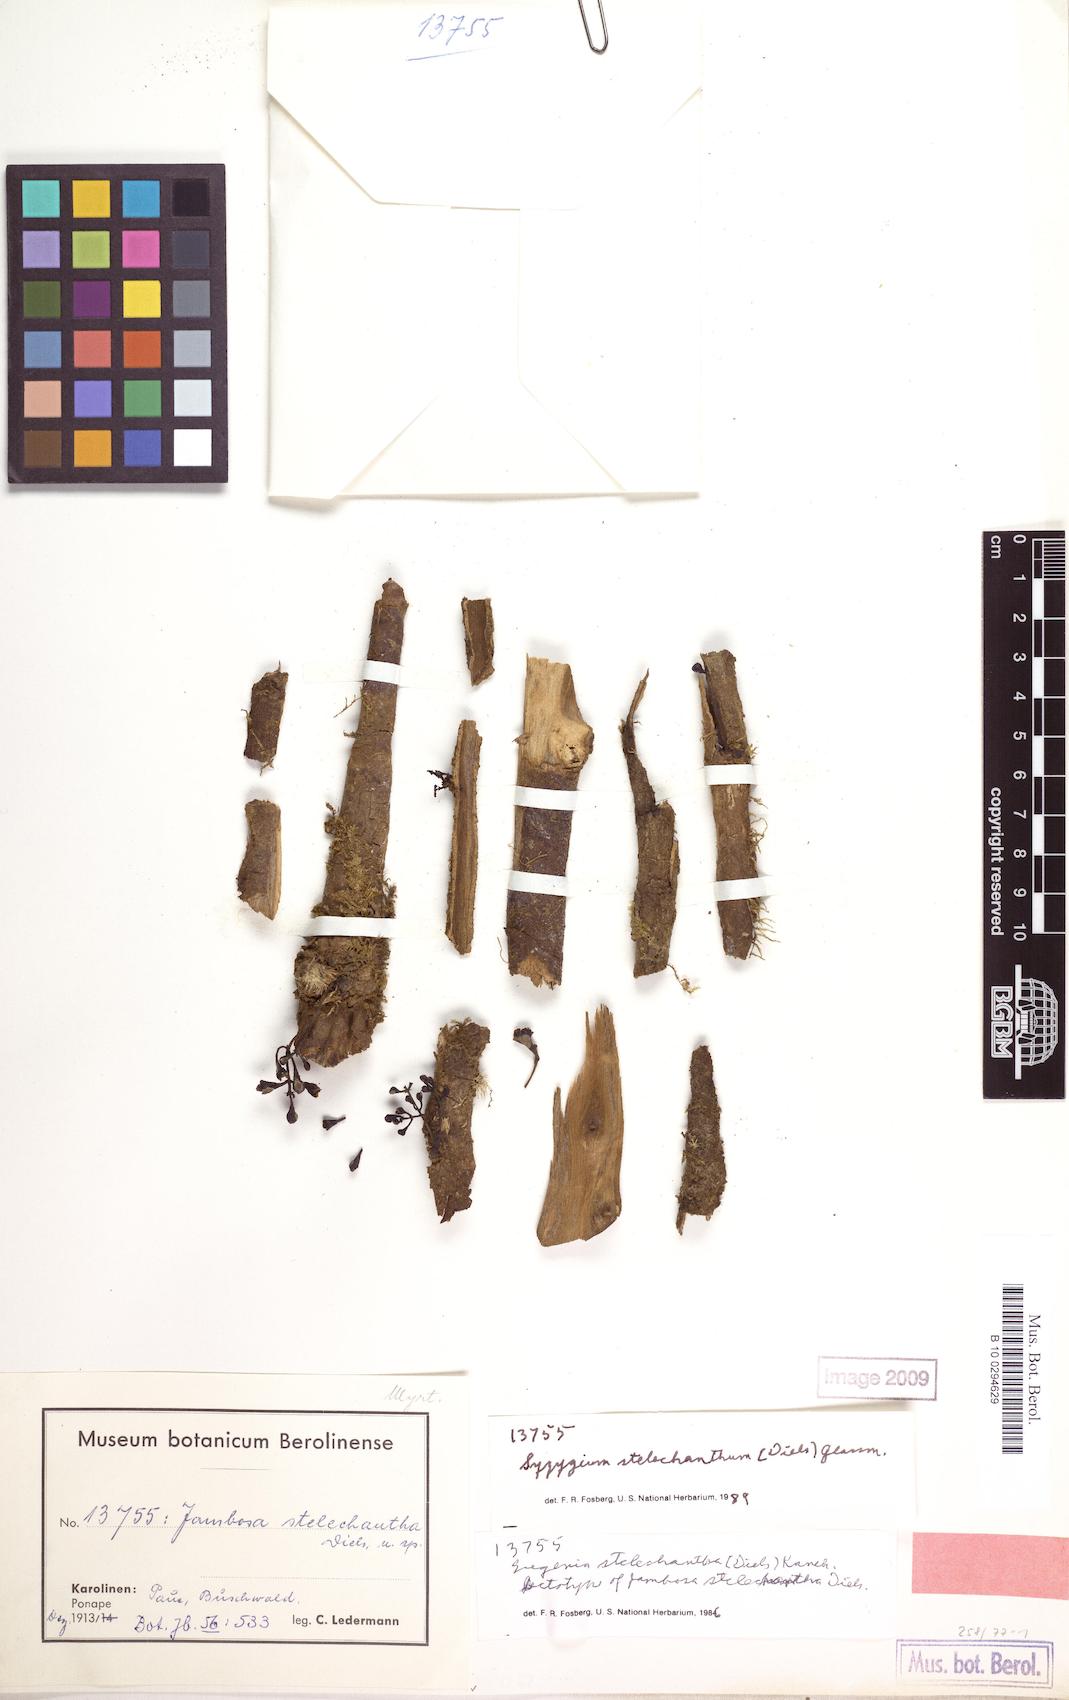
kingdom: Plantae
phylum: Tracheophyta
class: Magnoliopsida
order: Myrtales
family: Myrtaceae
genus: Syzygium
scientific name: Syzygium stelechanthum
